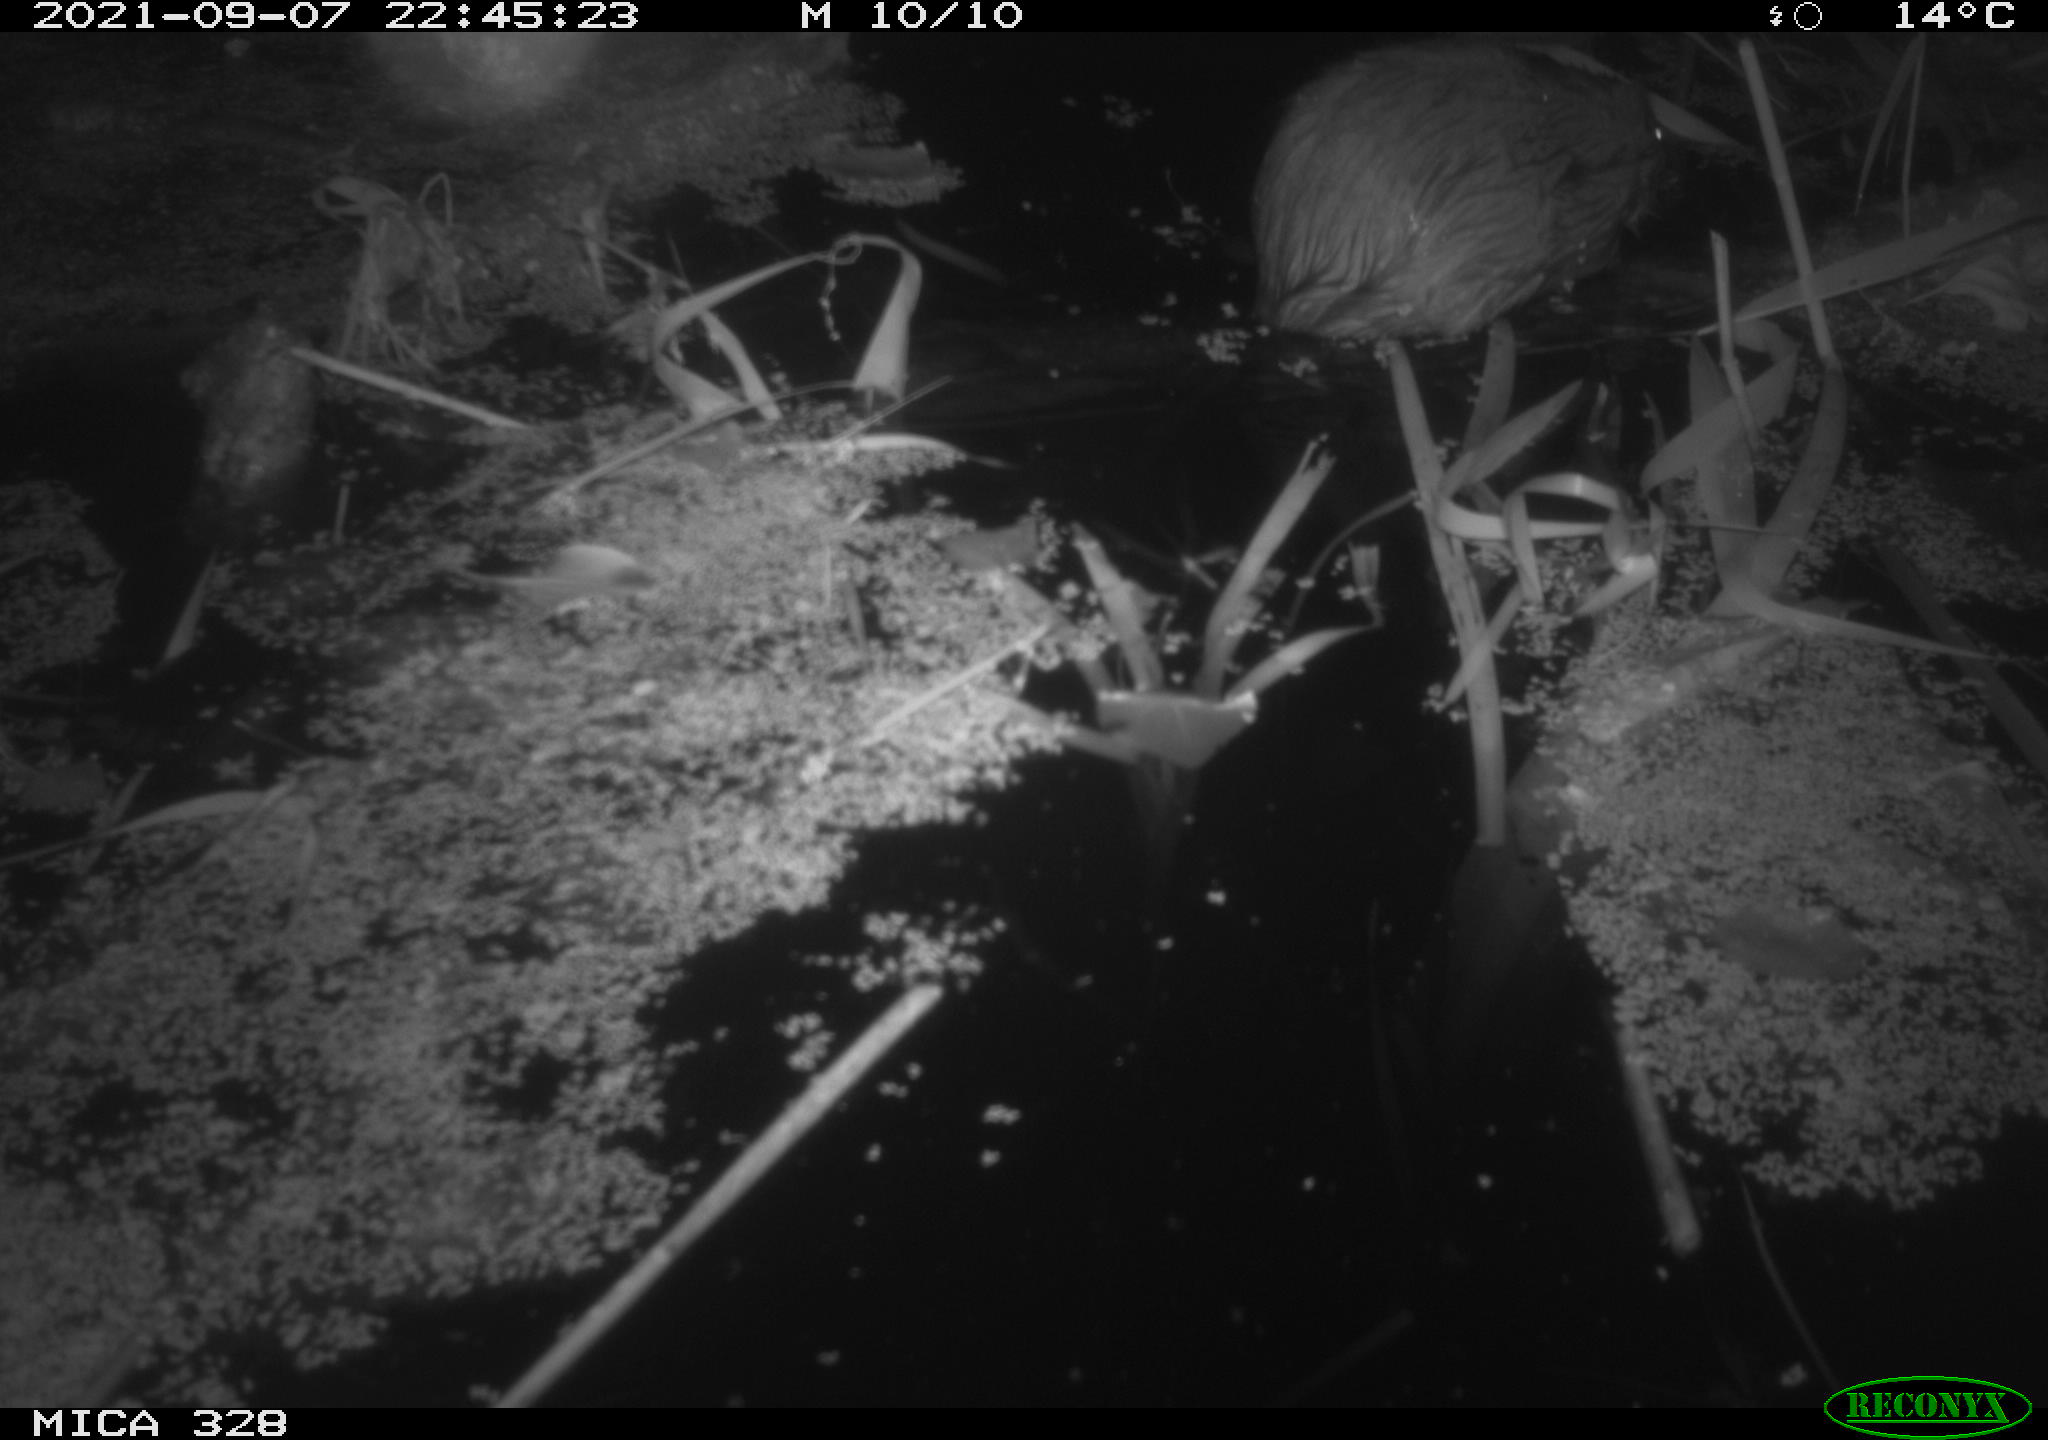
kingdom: Animalia
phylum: Chordata
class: Mammalia
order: Rodentia
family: Cricetidae
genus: Ondatra
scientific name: Ondatra zibethicus
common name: Muskrat
